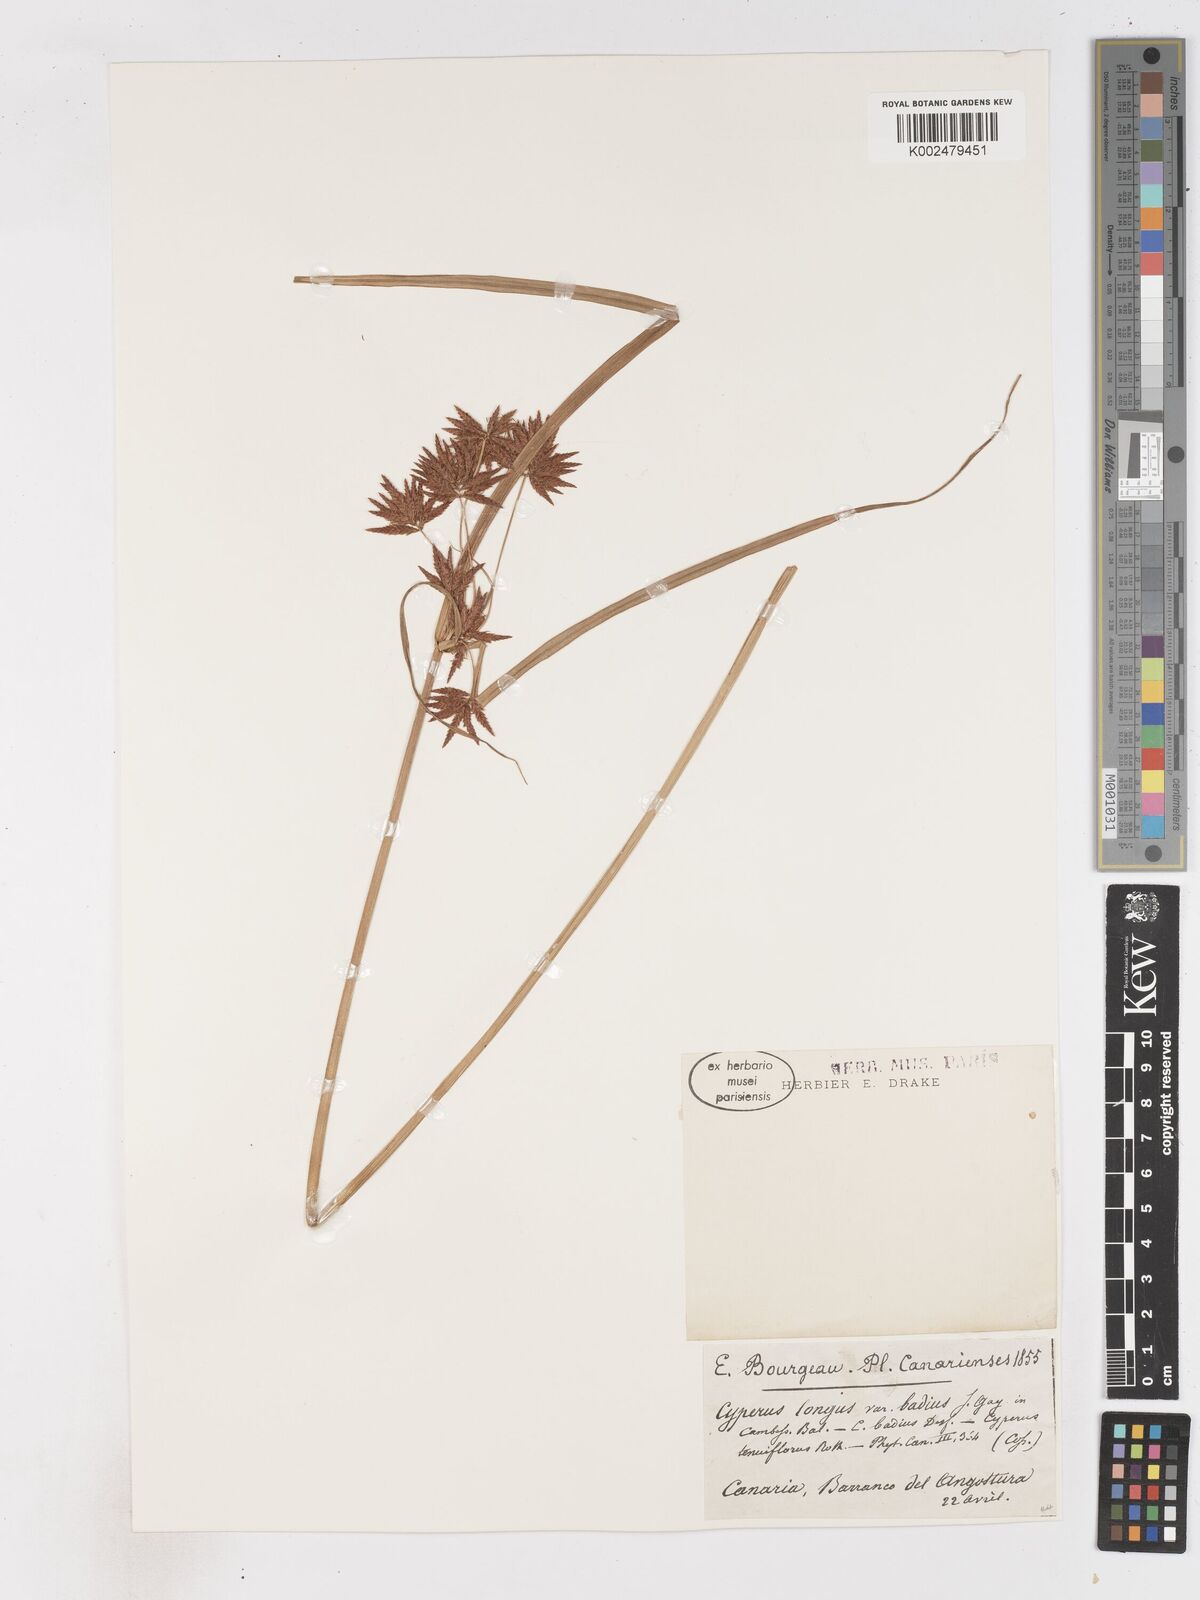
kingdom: Plantae
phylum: Tracheophyta
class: Liliopsida
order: Poales
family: Cyperaceae
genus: Cyperus
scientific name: Cyperus longus
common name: Galingale
